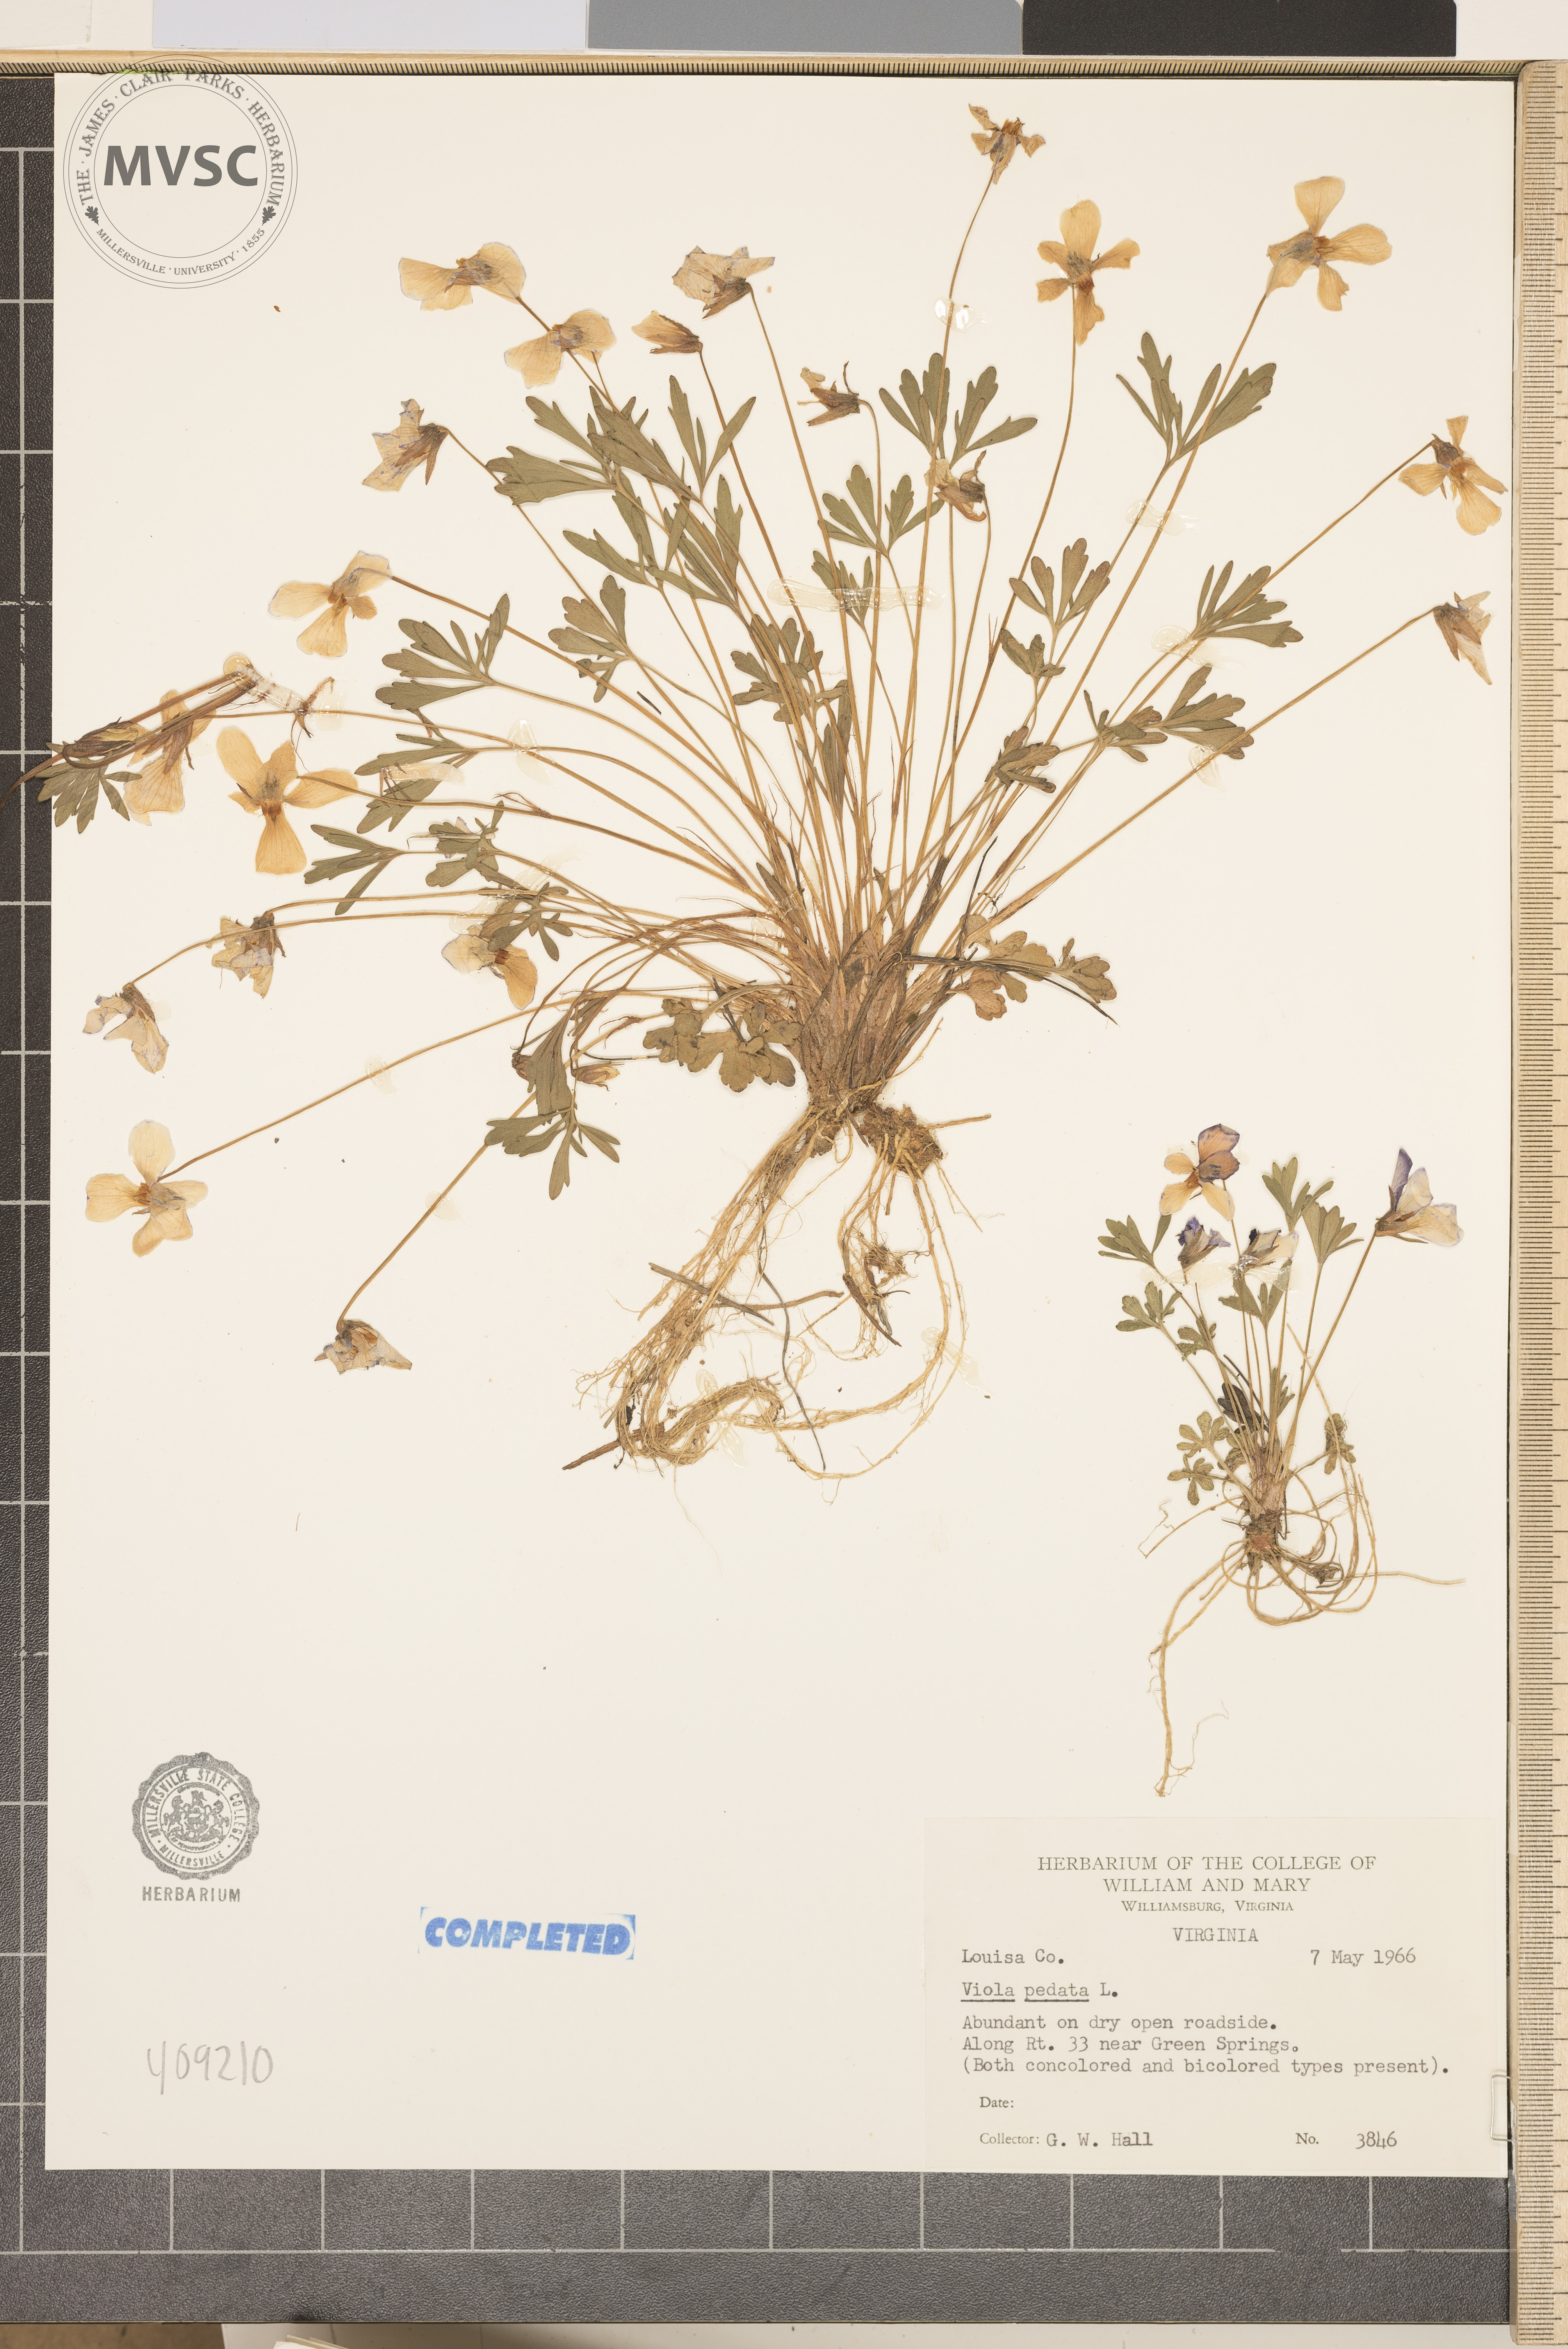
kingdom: Plantae
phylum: Tracheophyta
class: Magnoliopsida
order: Malpighiales
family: Violaceae
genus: Viola
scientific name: Viola pedata
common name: Pansy violet
